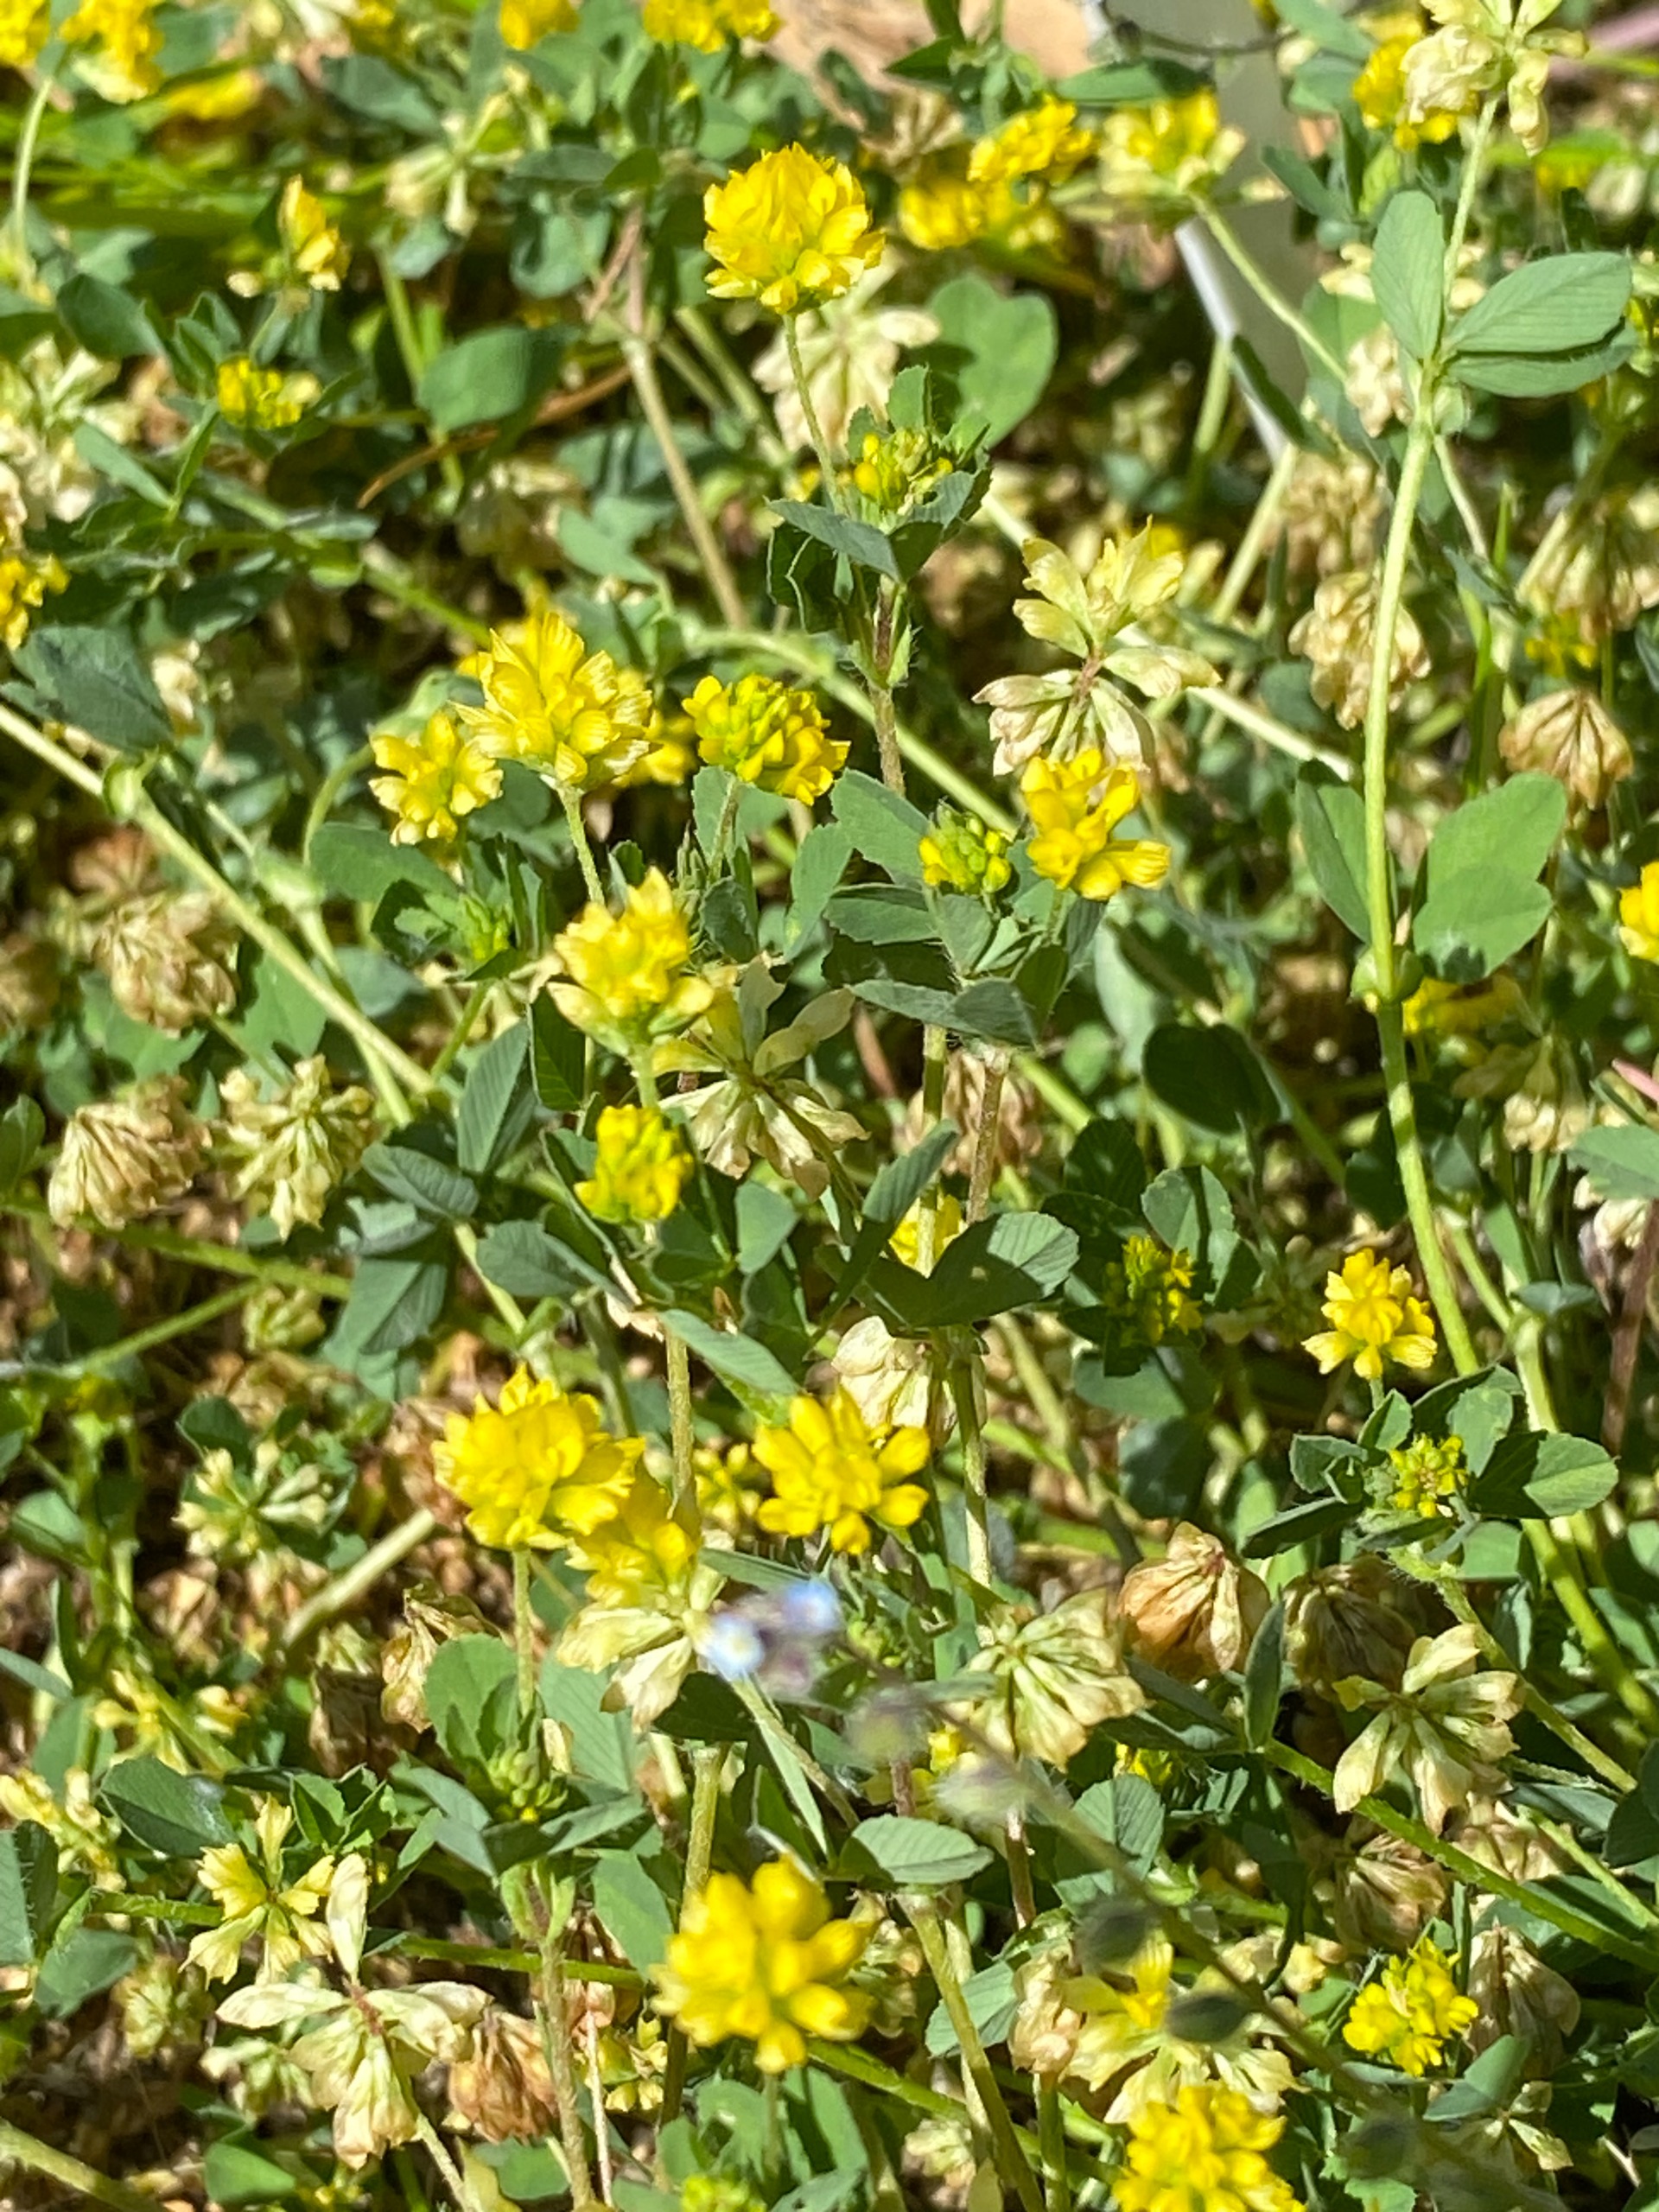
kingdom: Plantae
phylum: Tracheophyta
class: Magnoliopsida
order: Fabales
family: Fabaceae
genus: Trifolium
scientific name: Trifolium dubium
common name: Fin kløver
